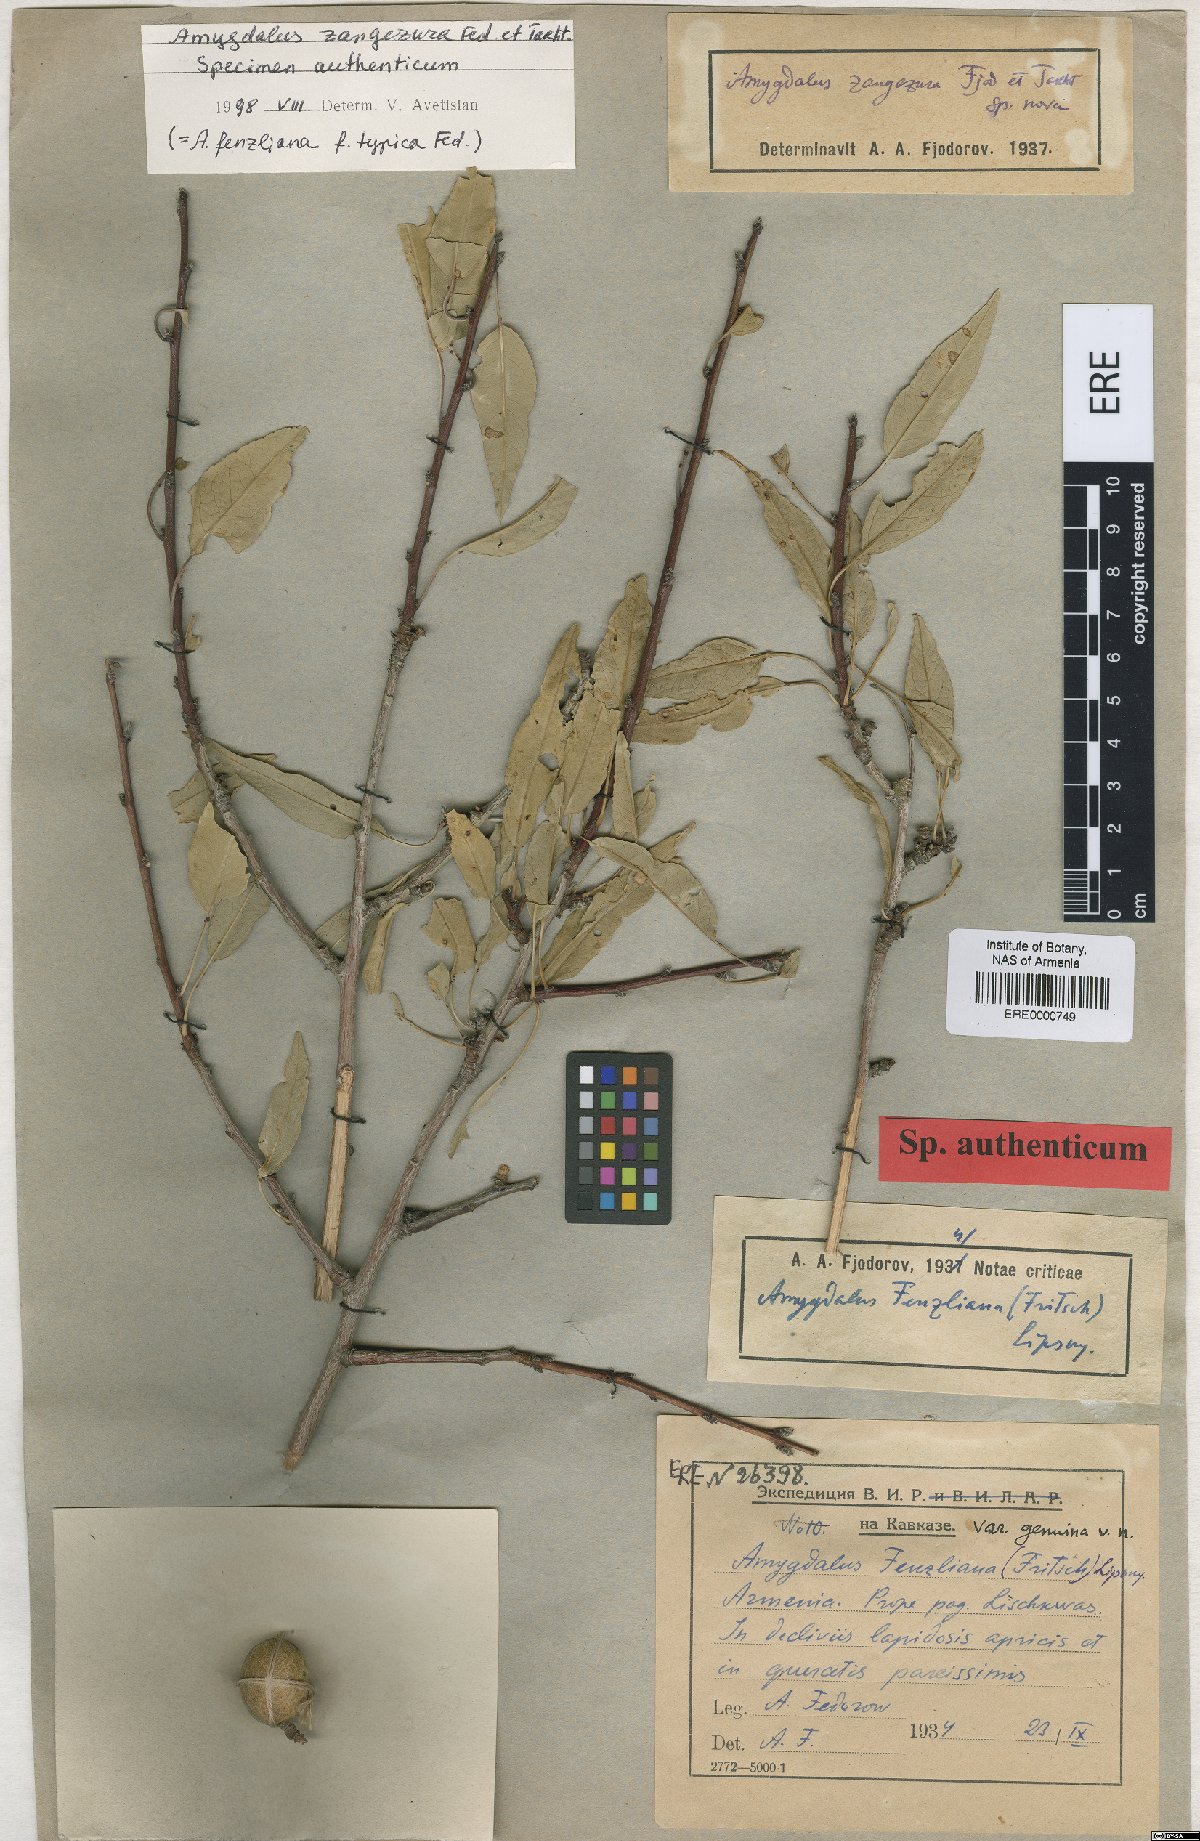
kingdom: Plantae
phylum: Tracheophyta
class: Magnoliopsida
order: Rosales
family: Rosaceae
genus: Prunus
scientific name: Prunus Amygdalus zangezura
